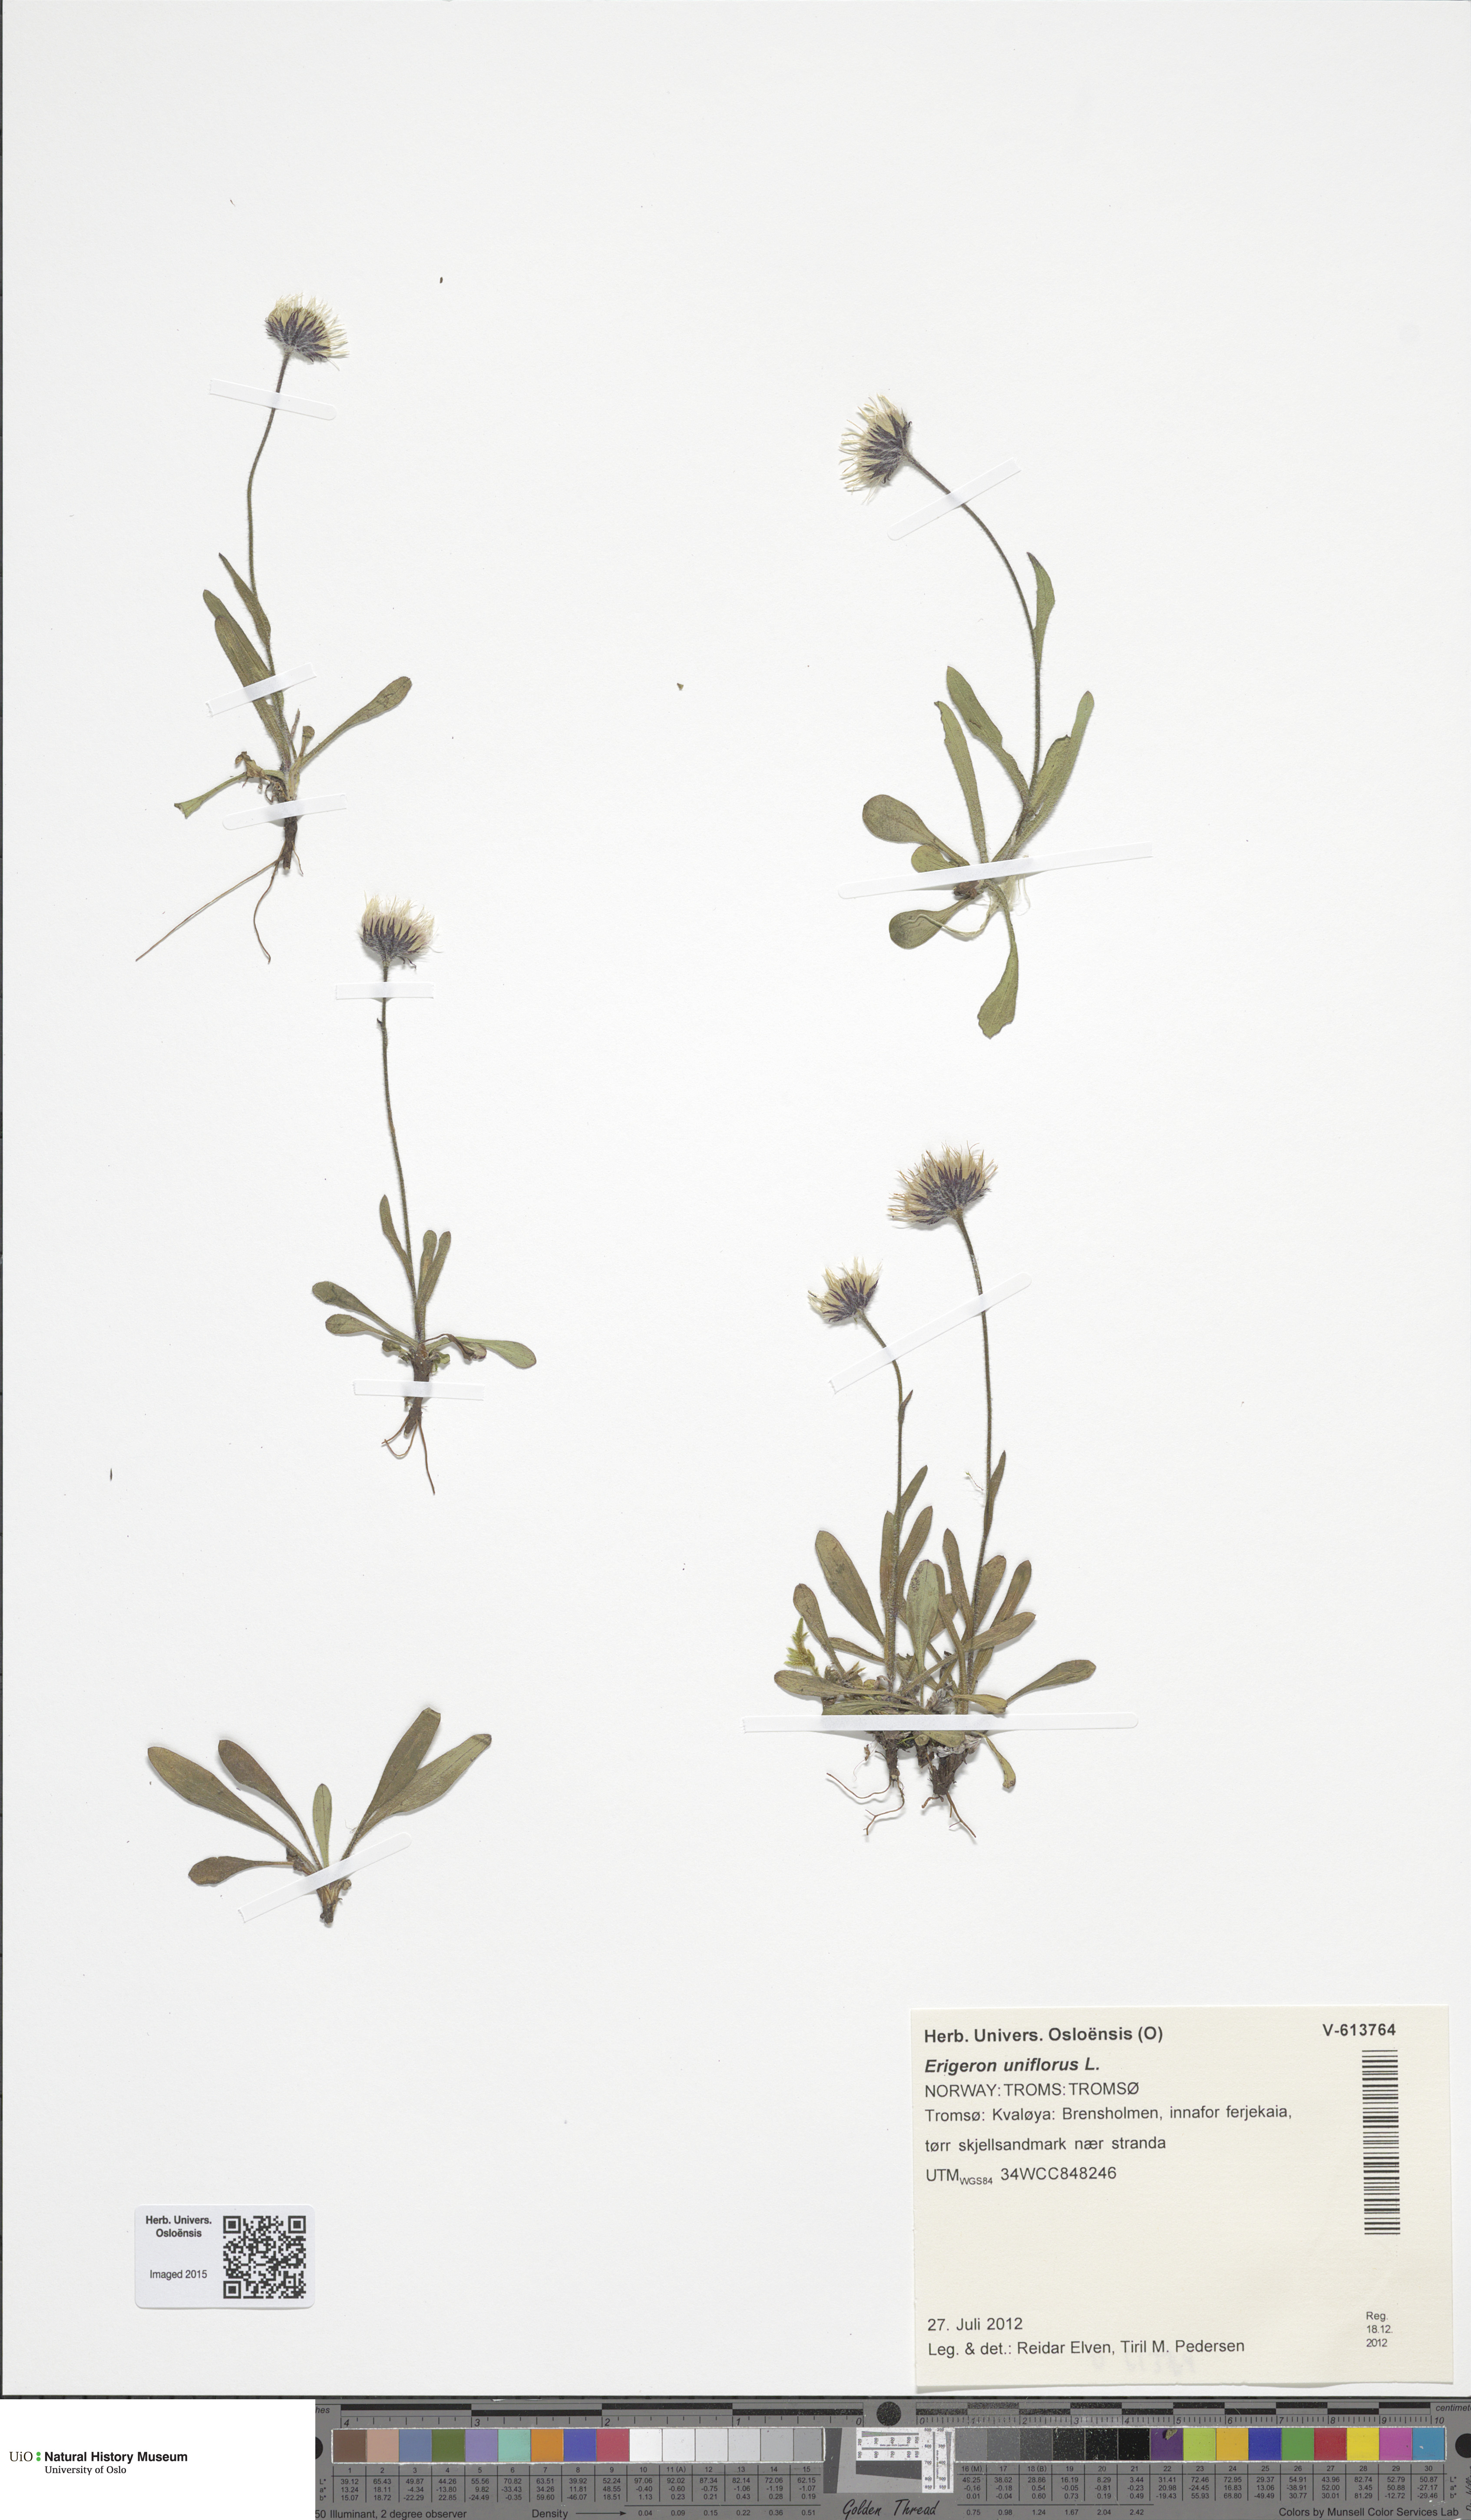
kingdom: Plantae
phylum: Tracheophyta
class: Magnoliopsida
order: Asterales
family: Asteraceae
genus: Erigeron
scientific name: Erigeron uniflorus
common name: Northern daisy
